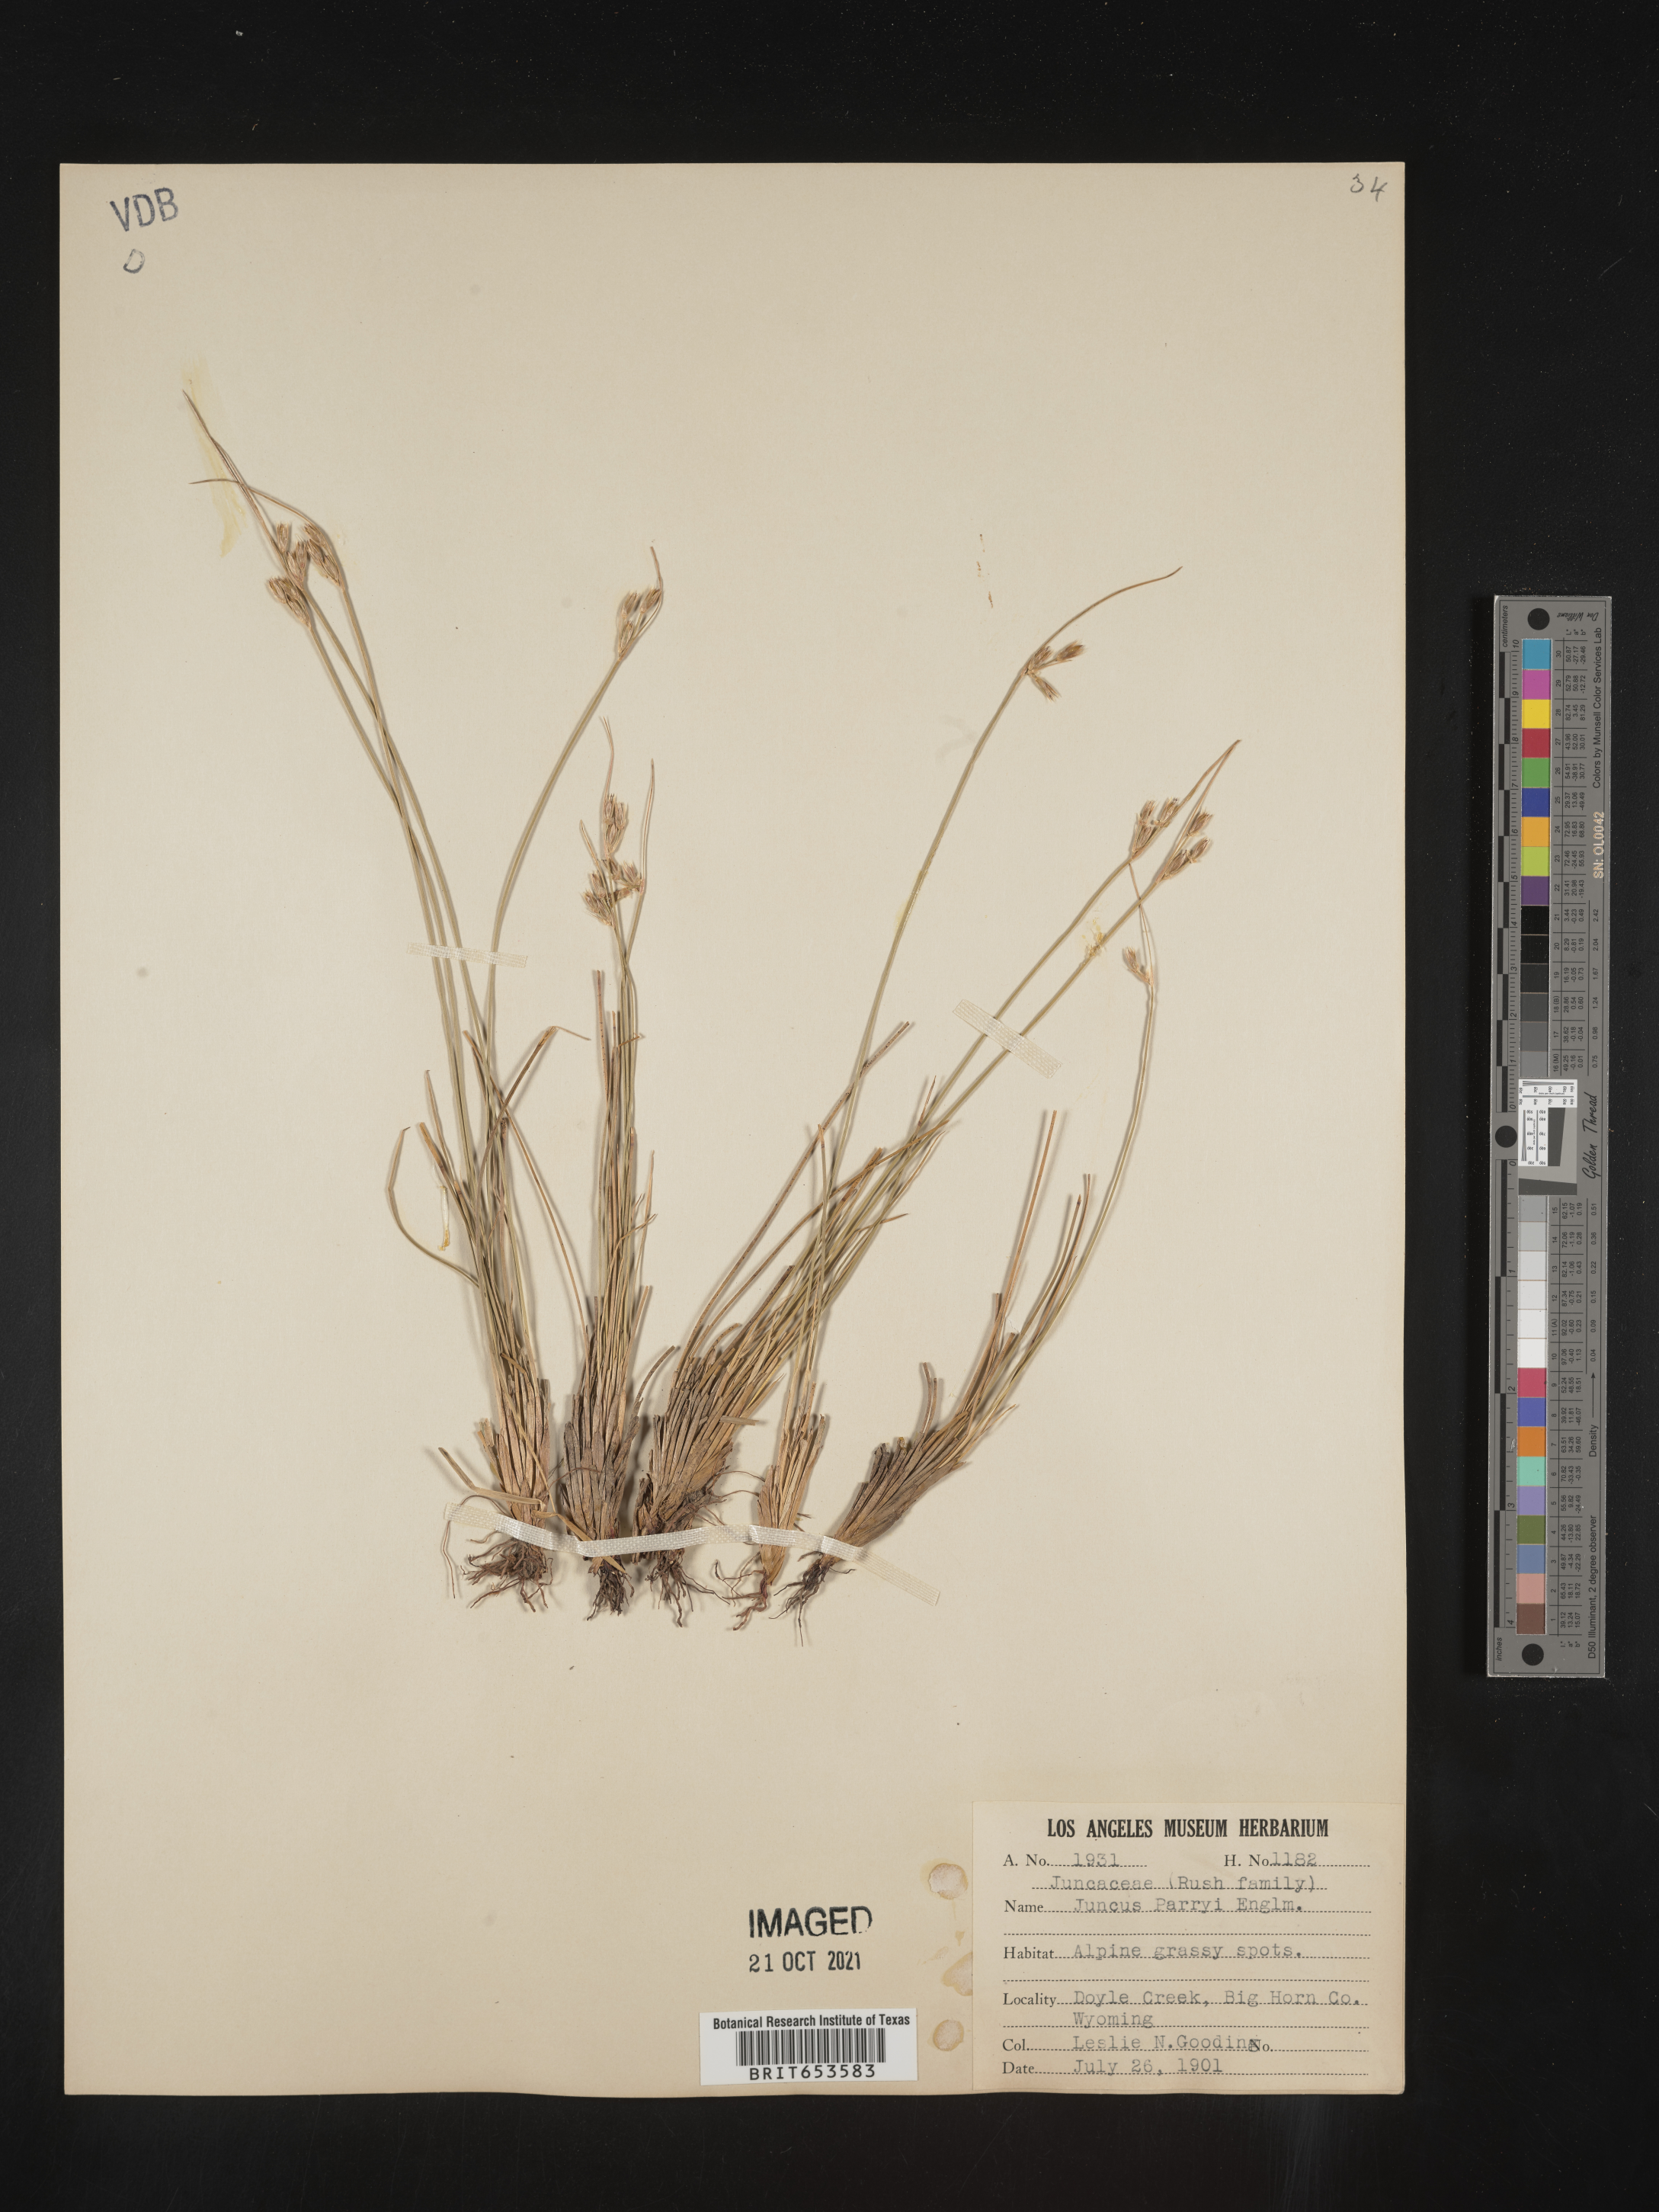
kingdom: Plantae
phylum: Tracheophyta
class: Liliopsida
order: Poales
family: Juncaceae
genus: Juncus
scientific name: Juncus parryi
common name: Parry's rush
